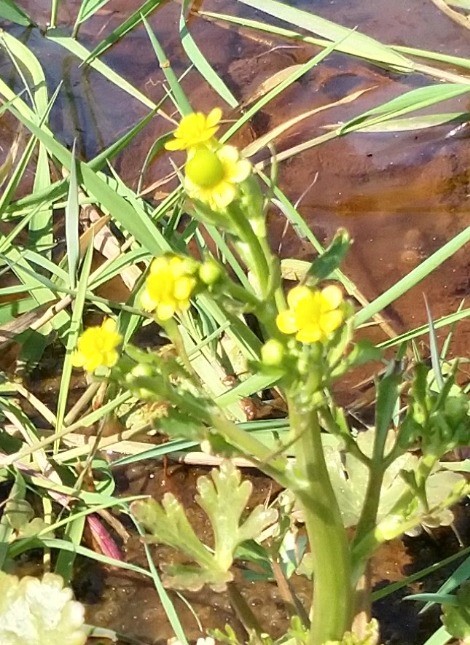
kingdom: Plantae
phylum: Tracheophyta
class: Magnoliopsida
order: Ranunculales
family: Ranunculaceae
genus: Ranunculus
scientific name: Ranunculus sceleratus
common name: Tigger-ranunkel
